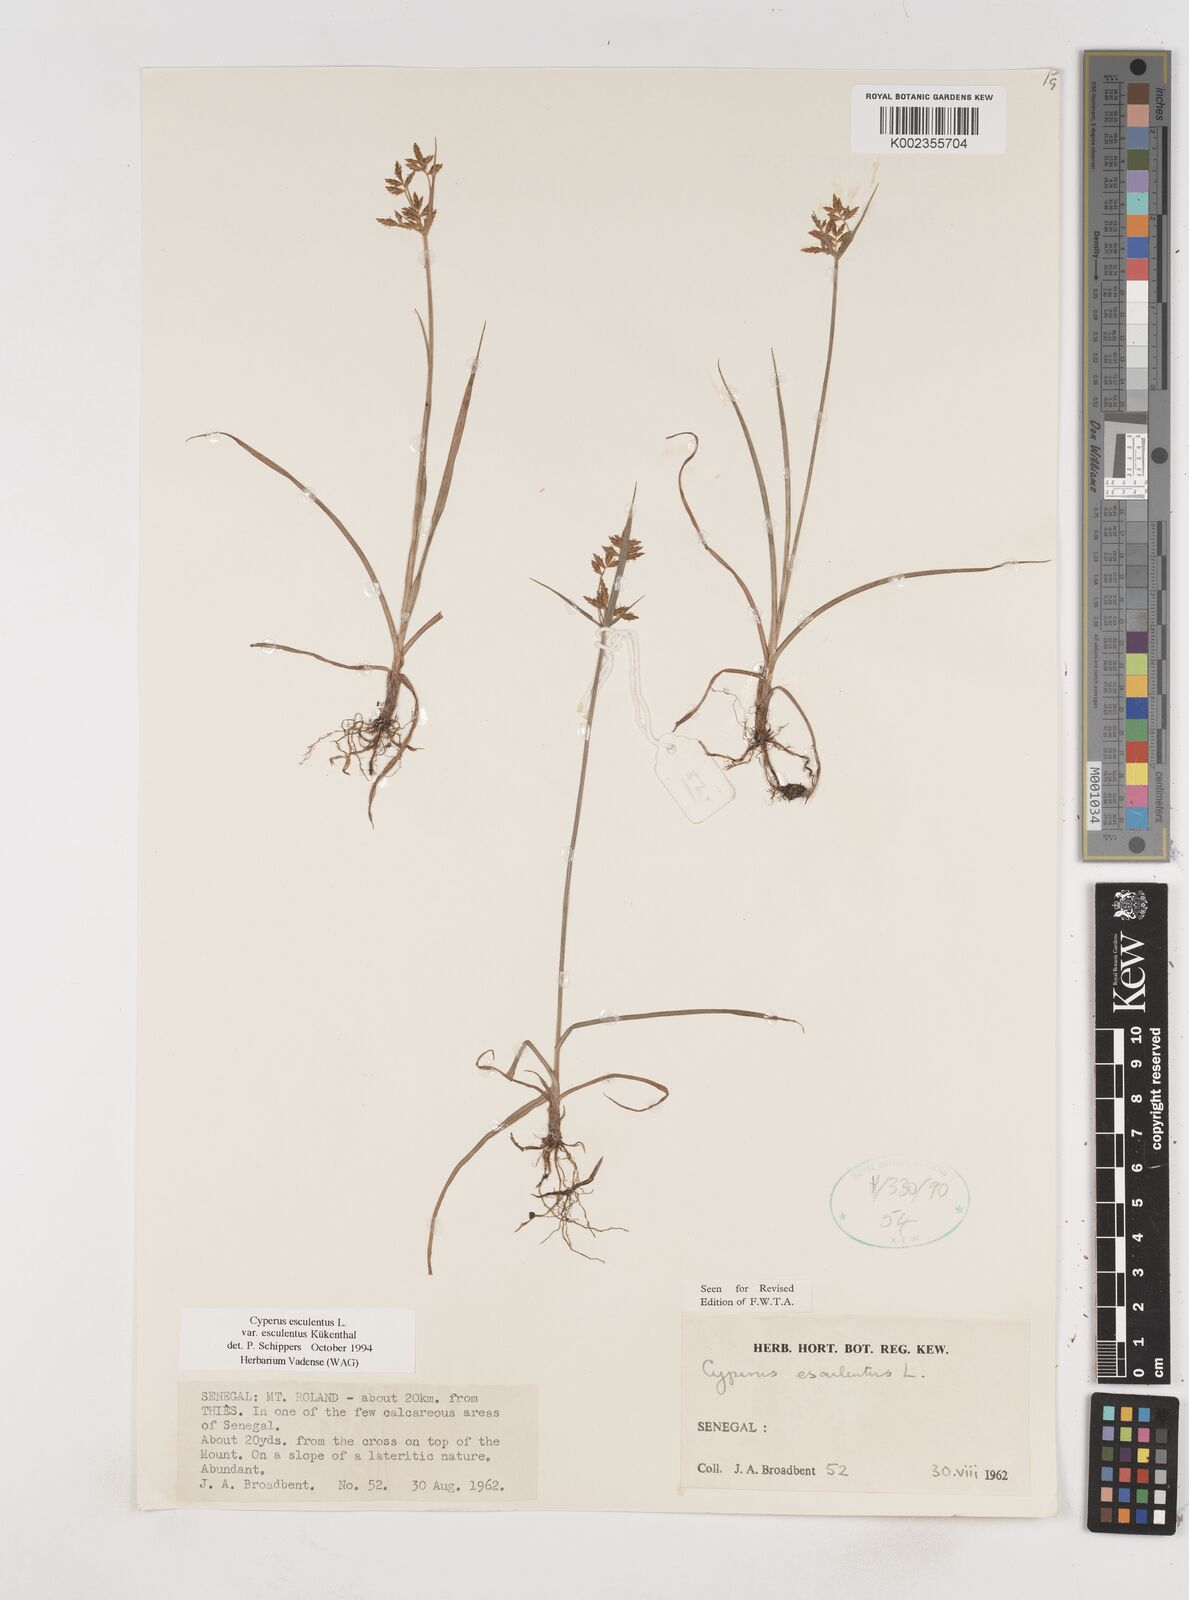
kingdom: Plantae
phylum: Tracheophyta
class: Liliopsida
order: Poales
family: Cyperaceae
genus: Cyperus
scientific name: Cyperus esculentus
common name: Yellow nutsedge
